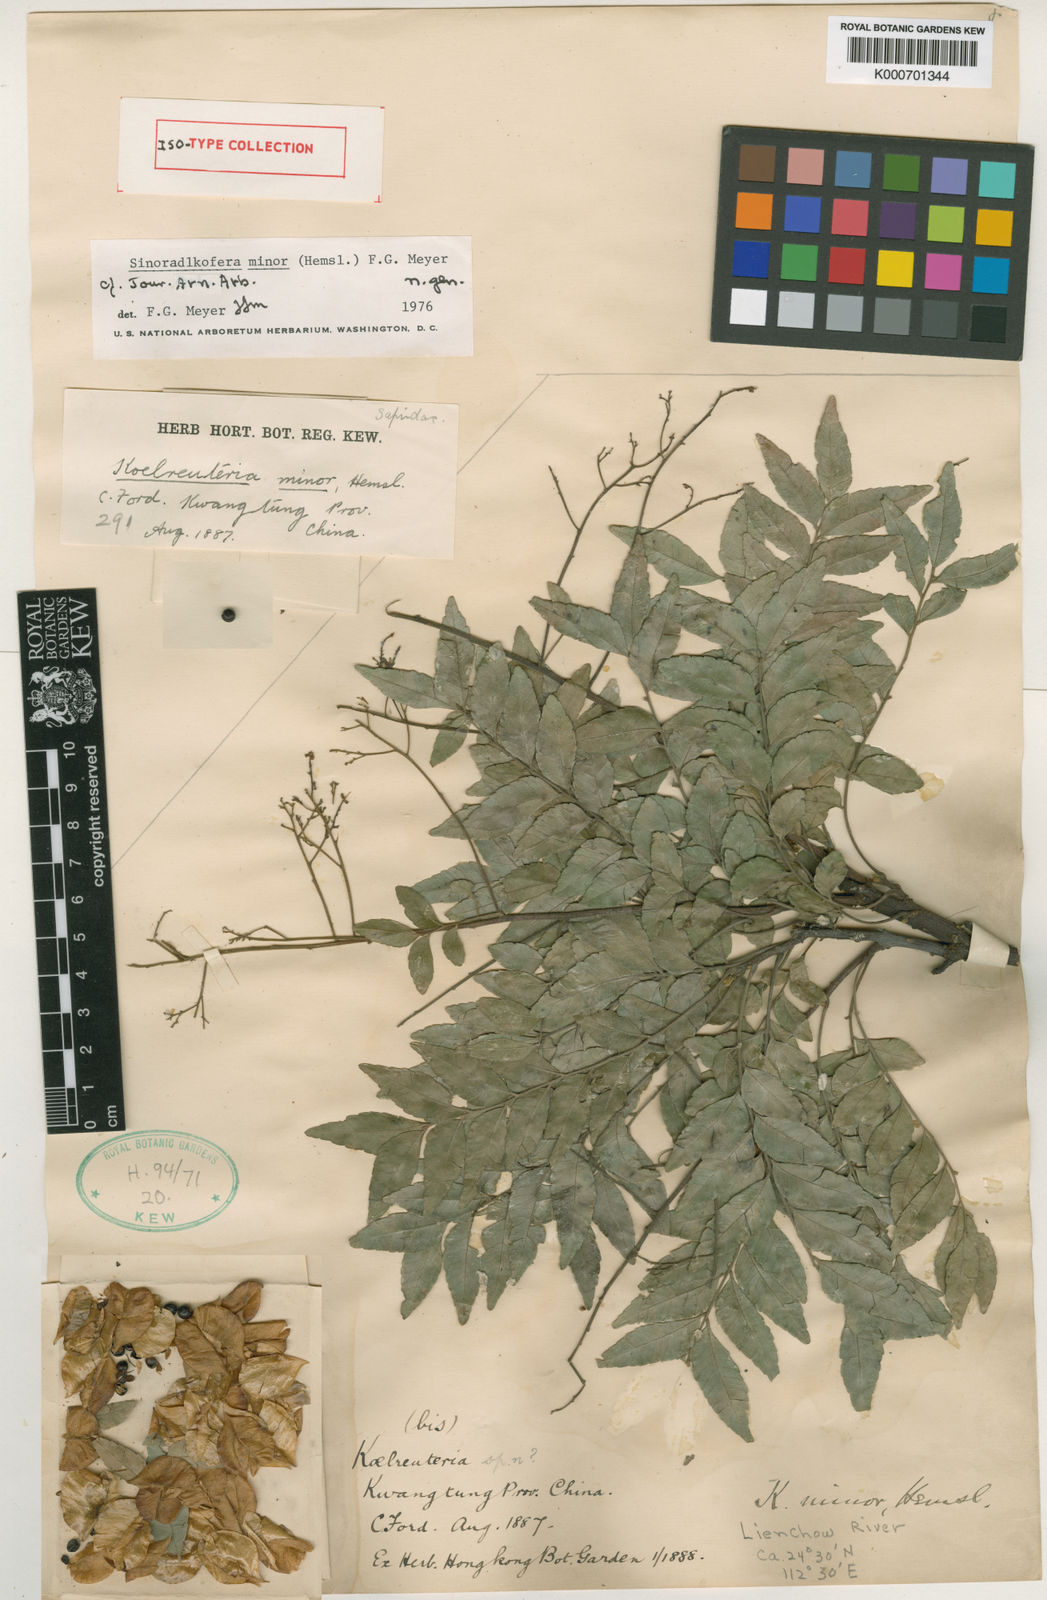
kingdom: Plantae
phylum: Tracheophyta
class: Magnoliopsida
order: Sapindales
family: Sapindaceae
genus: Sinoradlkofera
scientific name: Sinoradlkofera minor
